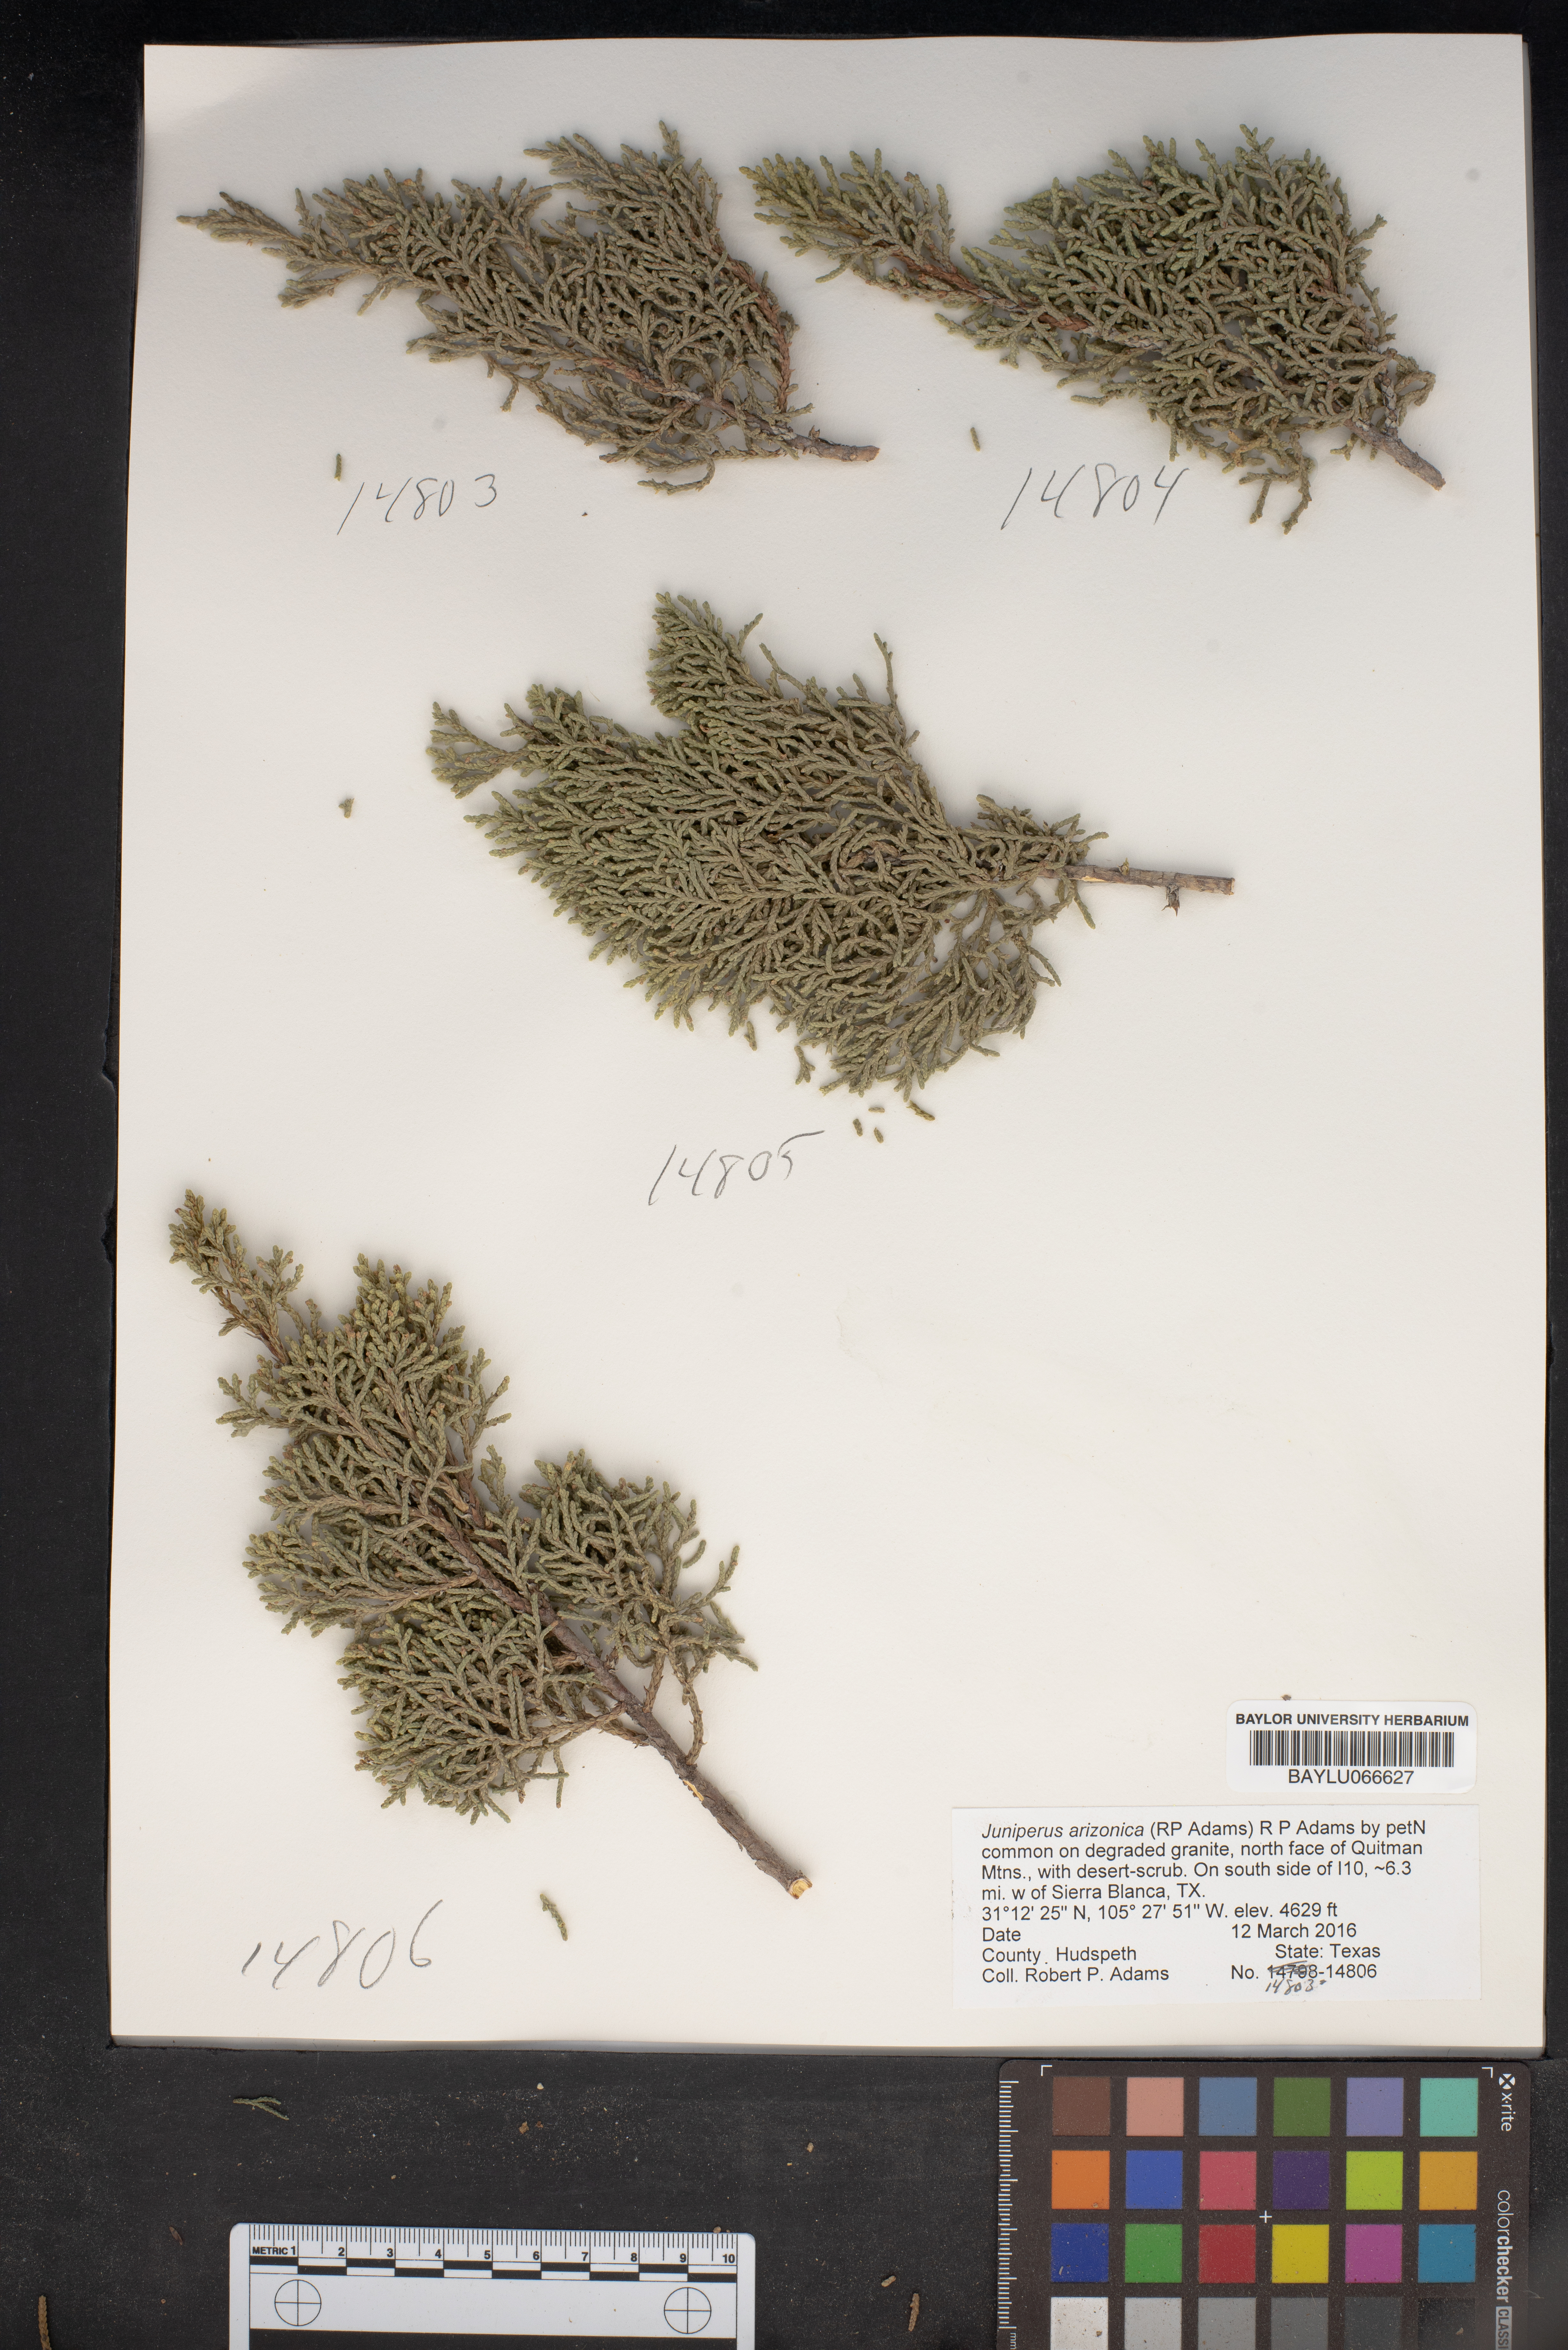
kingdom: Plantae
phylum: Tracheophyta
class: Pinopsida
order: Pinales
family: Cupressaceae
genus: Juniperus
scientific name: Juniperus arizonica
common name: Arizona juniper
